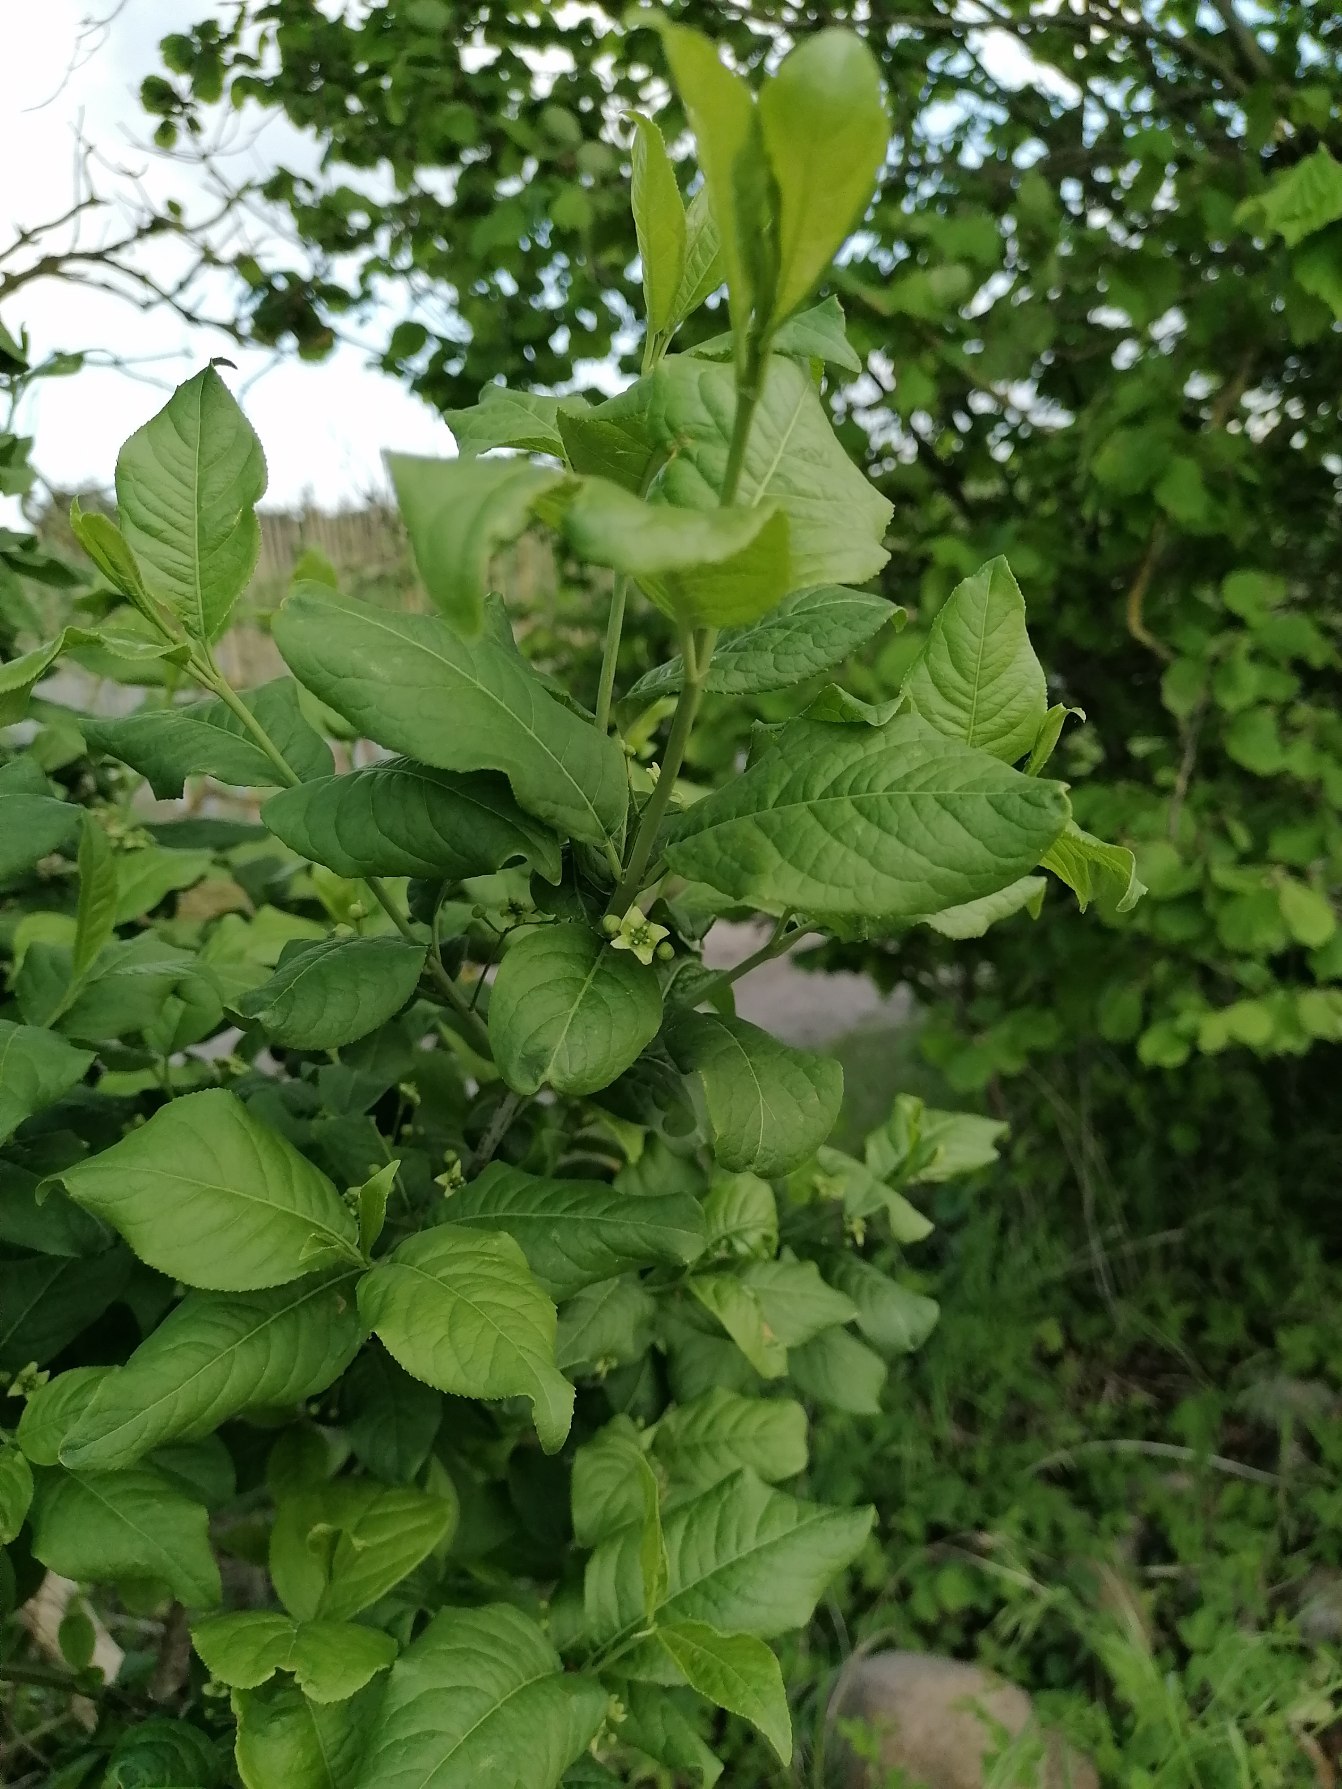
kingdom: Plantae
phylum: Tracheophyta
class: Magnoliopsida
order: Celastrales
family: Celastraceae
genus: Euonymus
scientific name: Euonymus europaeus
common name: Benved
